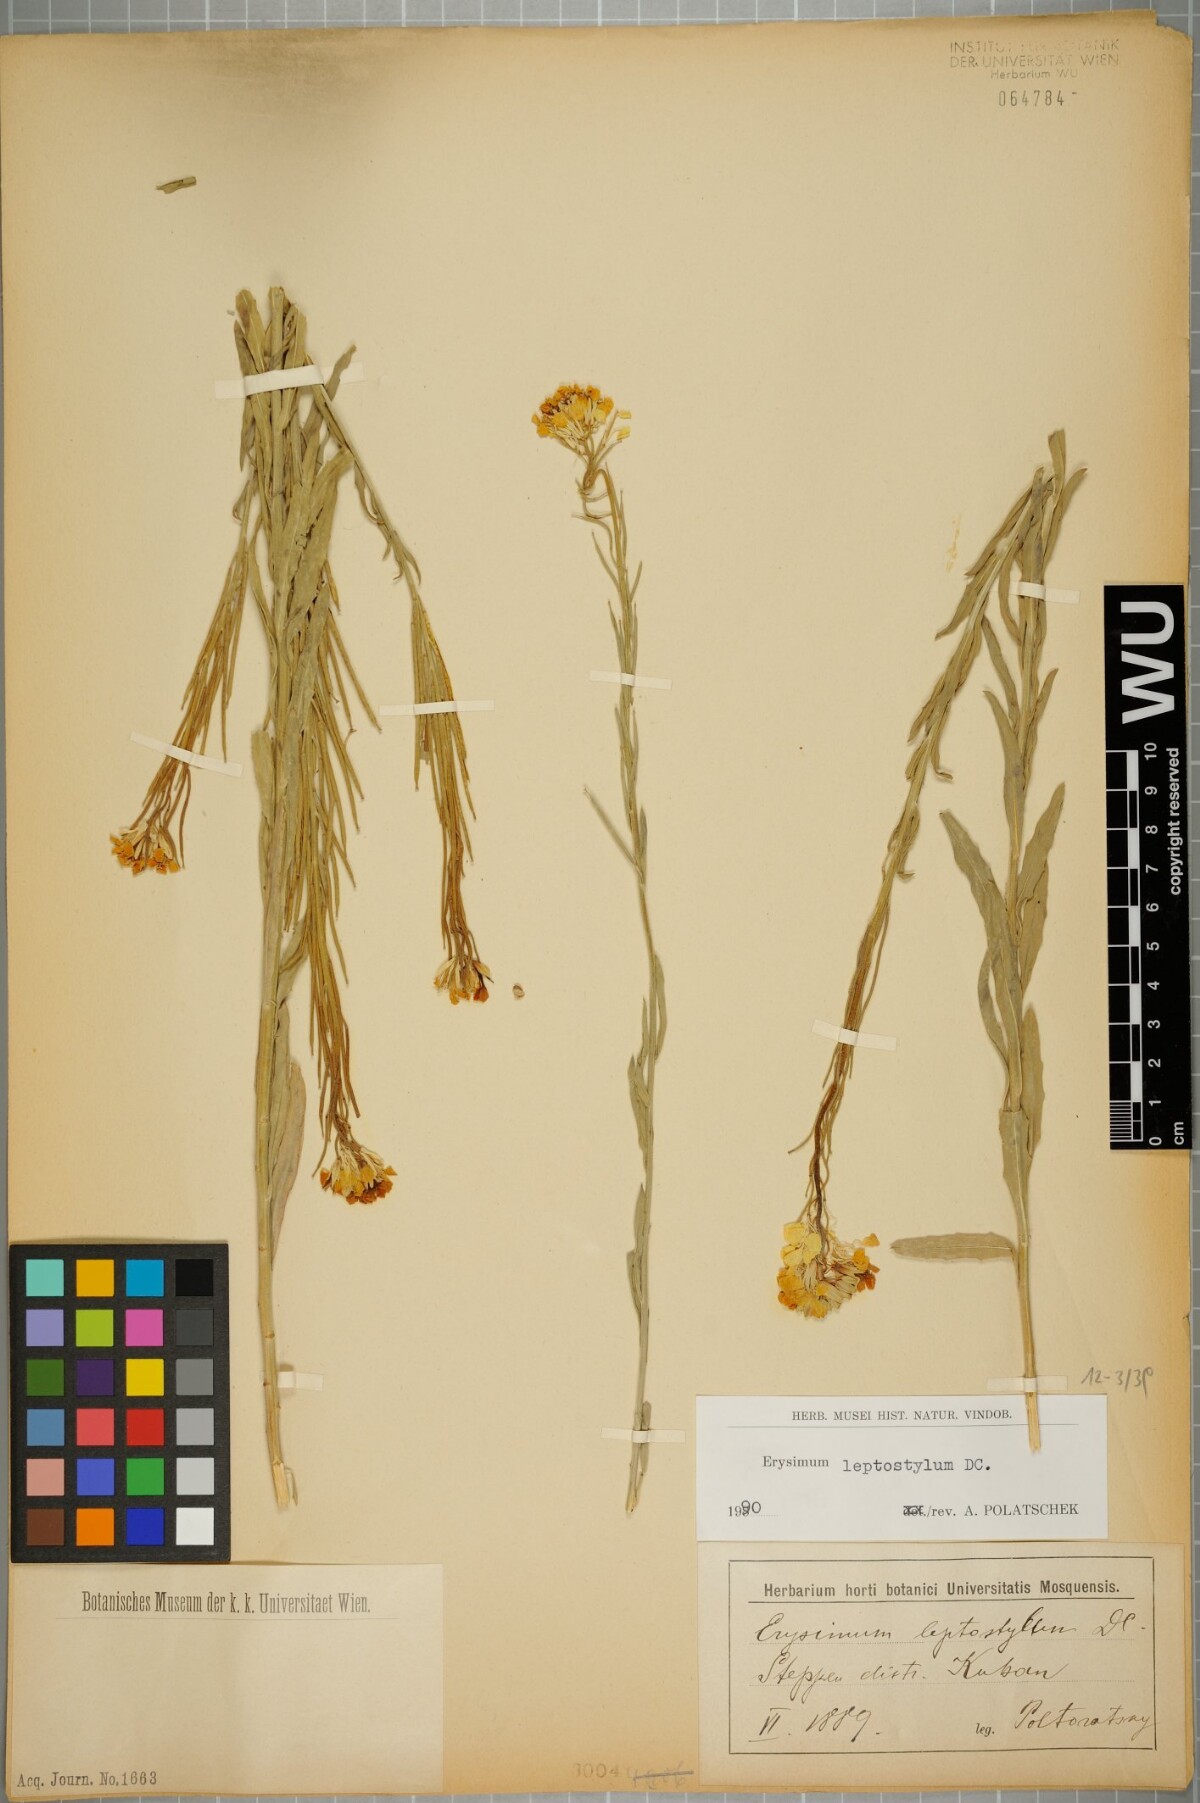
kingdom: Plantae
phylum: Tracheophyta
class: Magnoliopsida
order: Brassicales
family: Brassicaceae
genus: Erysimum
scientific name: Erysimum leptostylum
